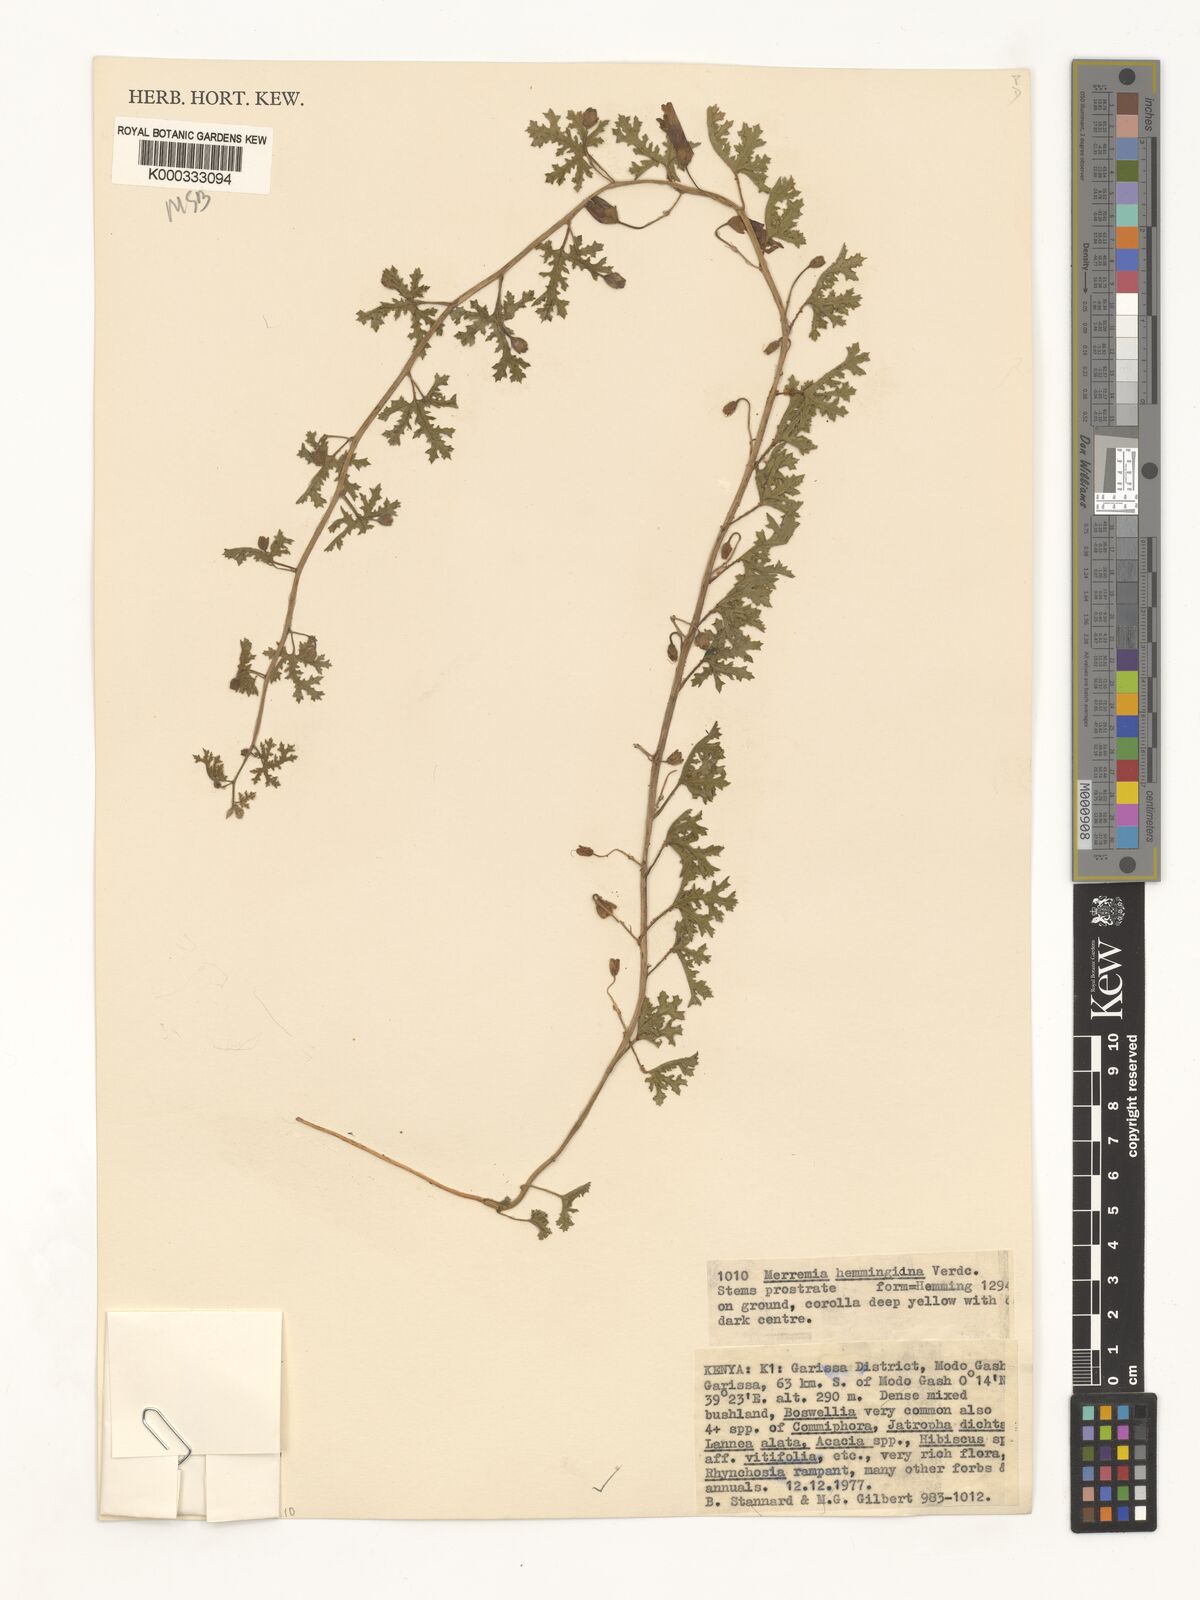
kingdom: Plantae
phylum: Tracheophyta
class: Magnoliopsida
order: Solanales
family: Convolvulaceae
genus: Merremia
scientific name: Merremia hemmingiana
